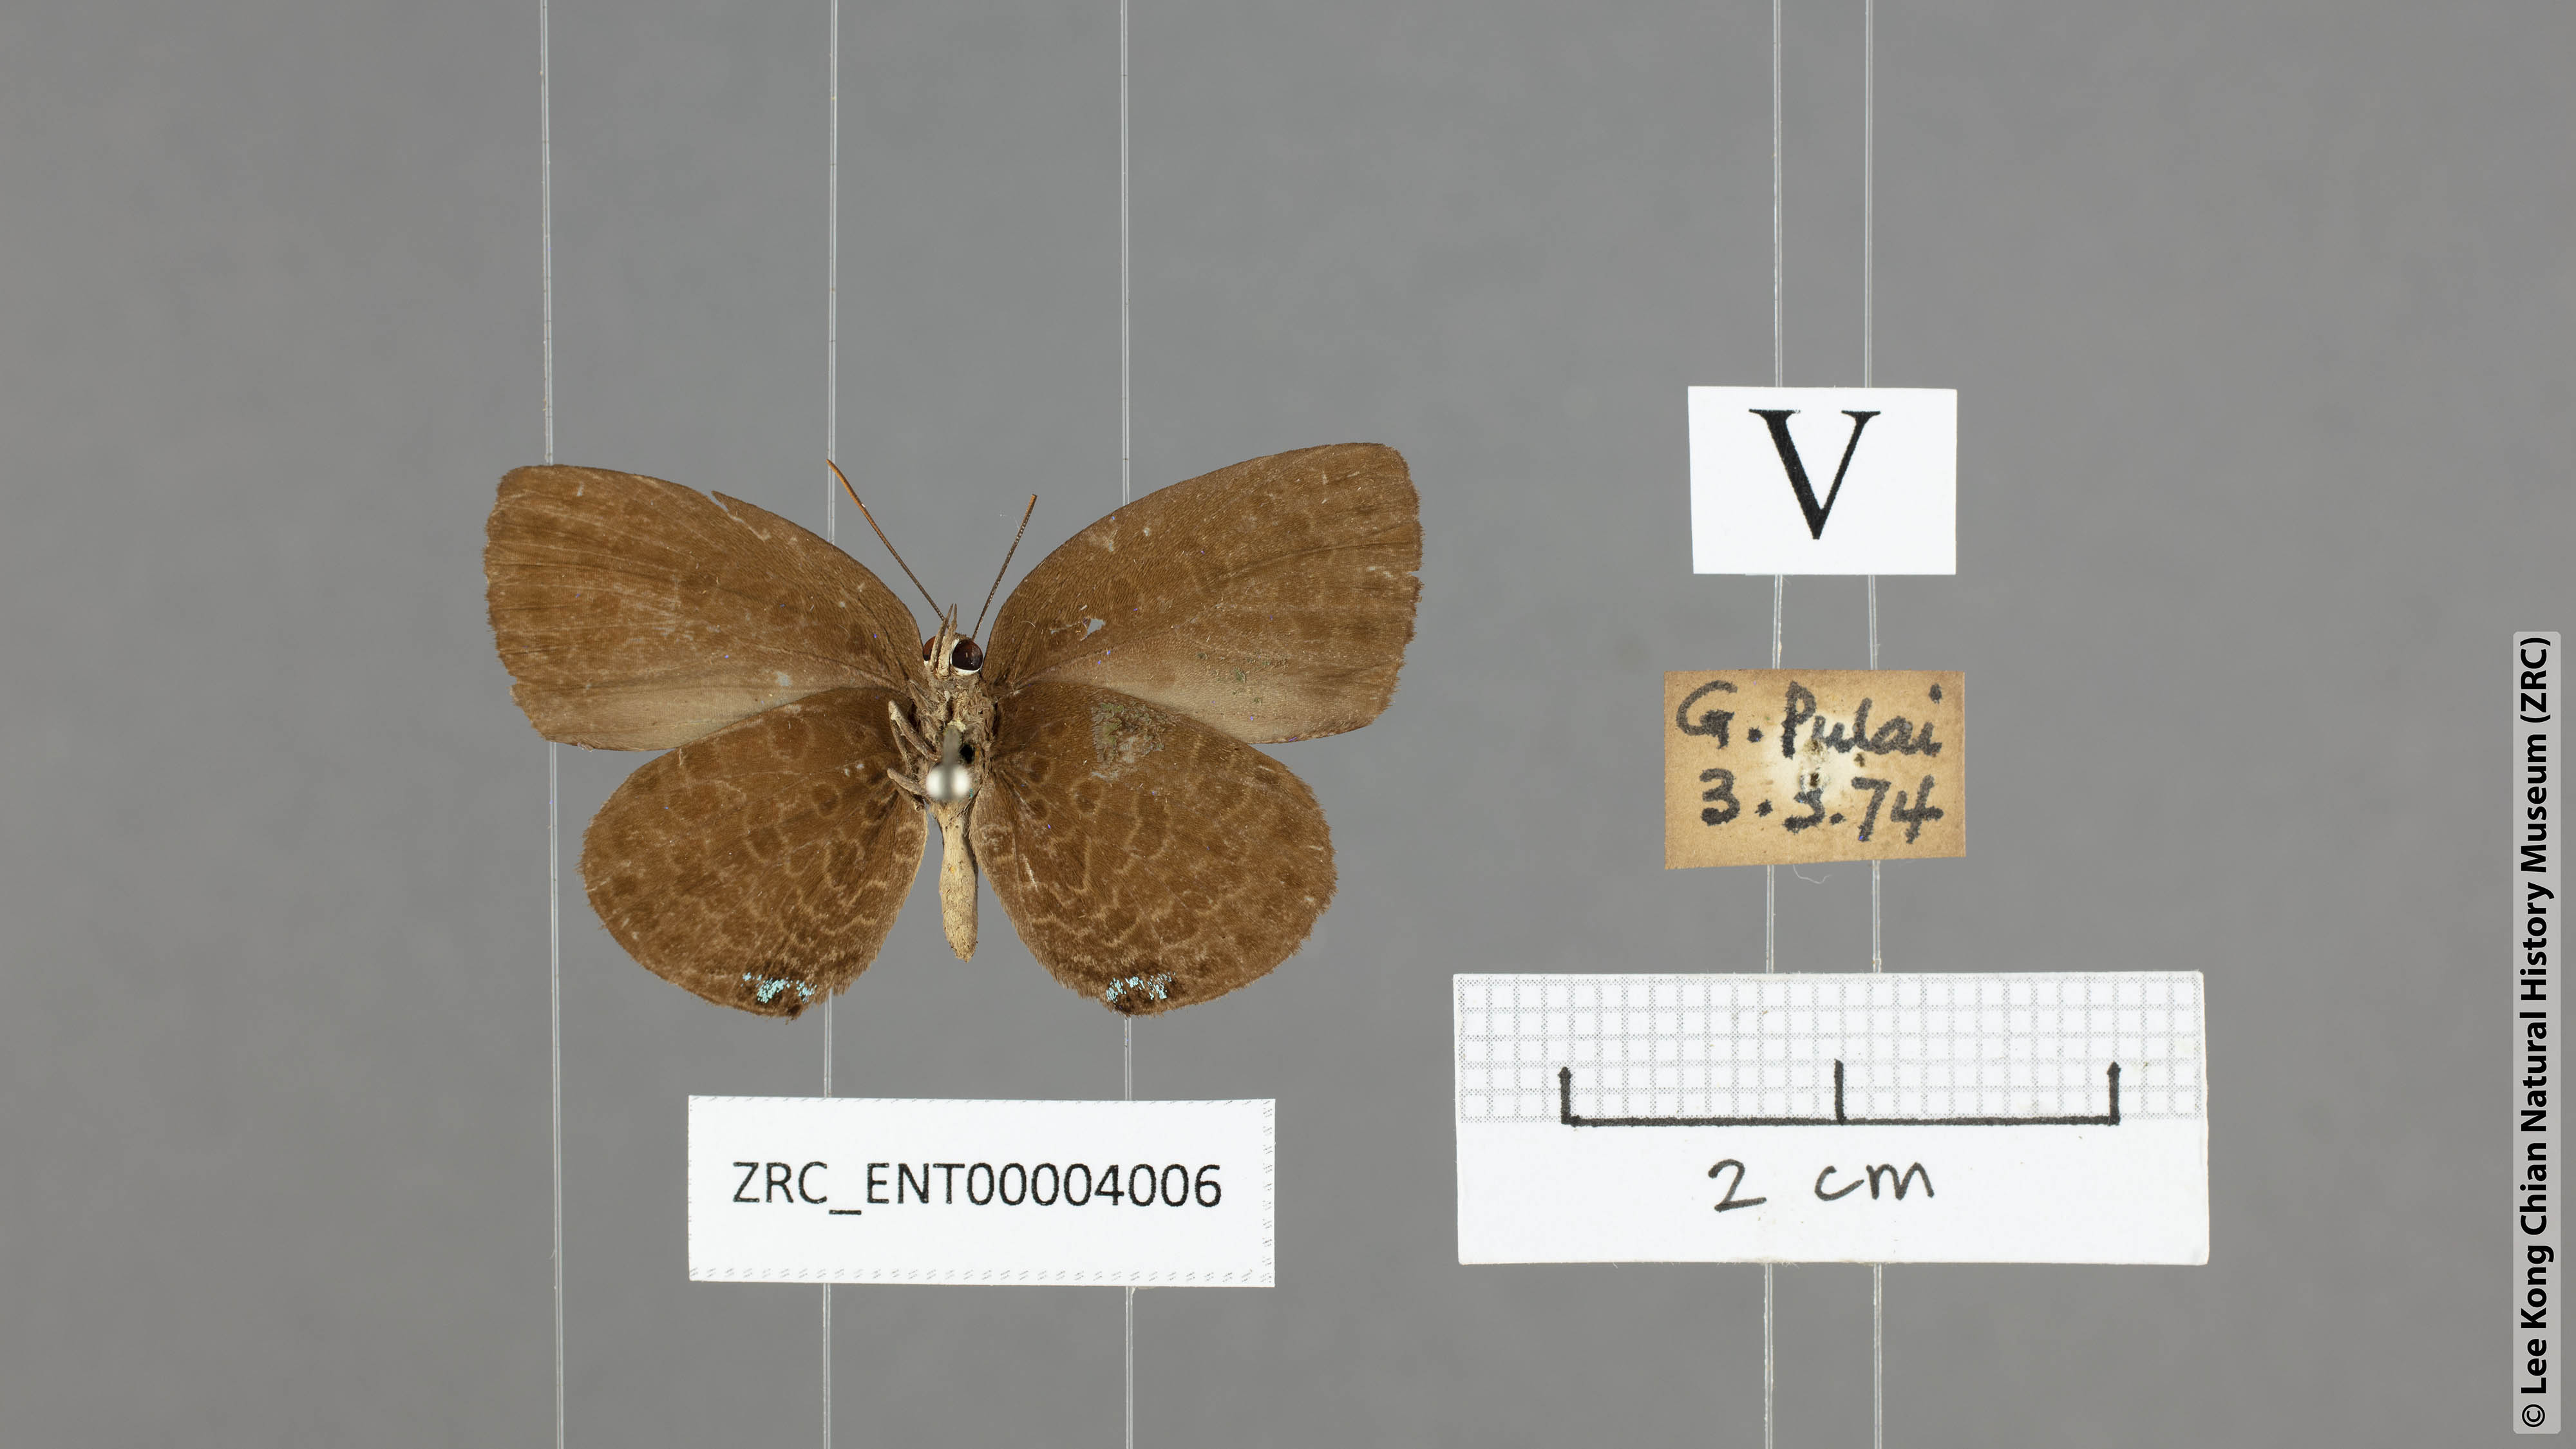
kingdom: Animalia
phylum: Arthropoda
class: Insecta
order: Lepidoptera
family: Lycaenidae
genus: Arhopala
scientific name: Arhopala muta
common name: Mutal oakblue
